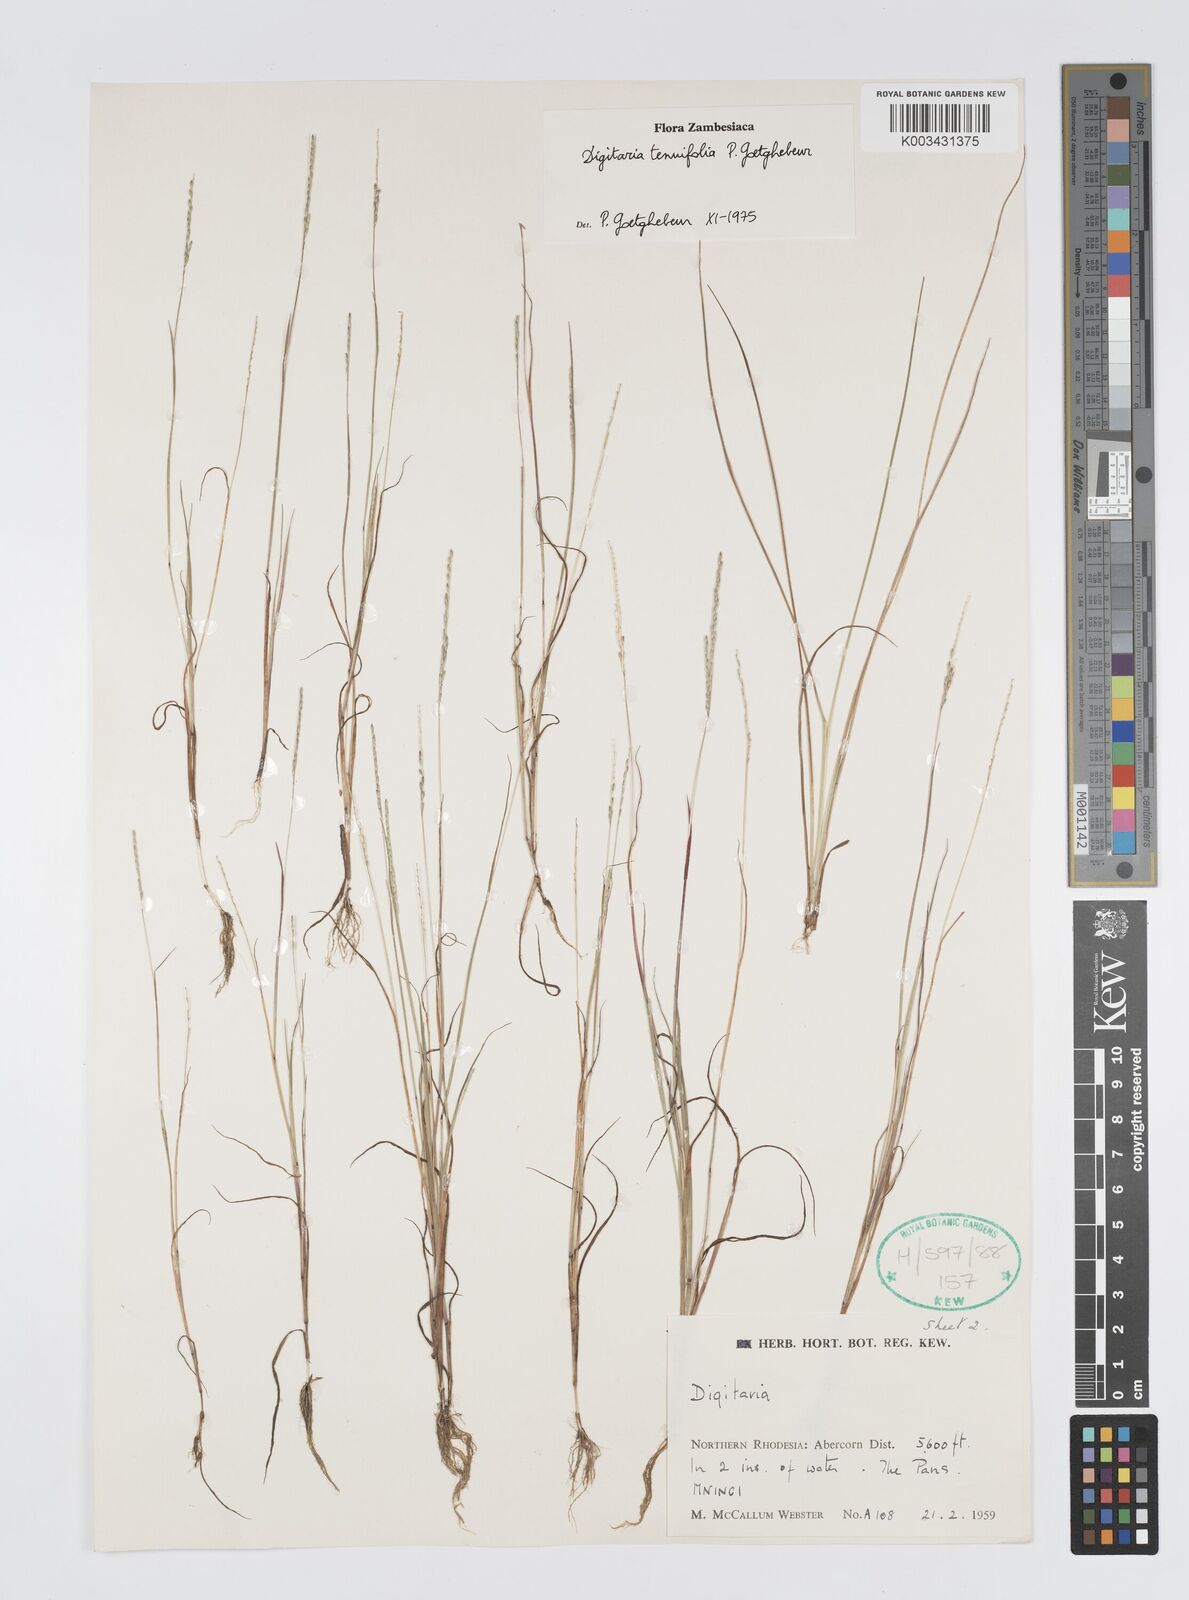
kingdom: Plantae
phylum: Tracheophyta
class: Liliopsida
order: Poales
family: Poaceae
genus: Digitaria
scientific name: Digitaria tenuifolia
